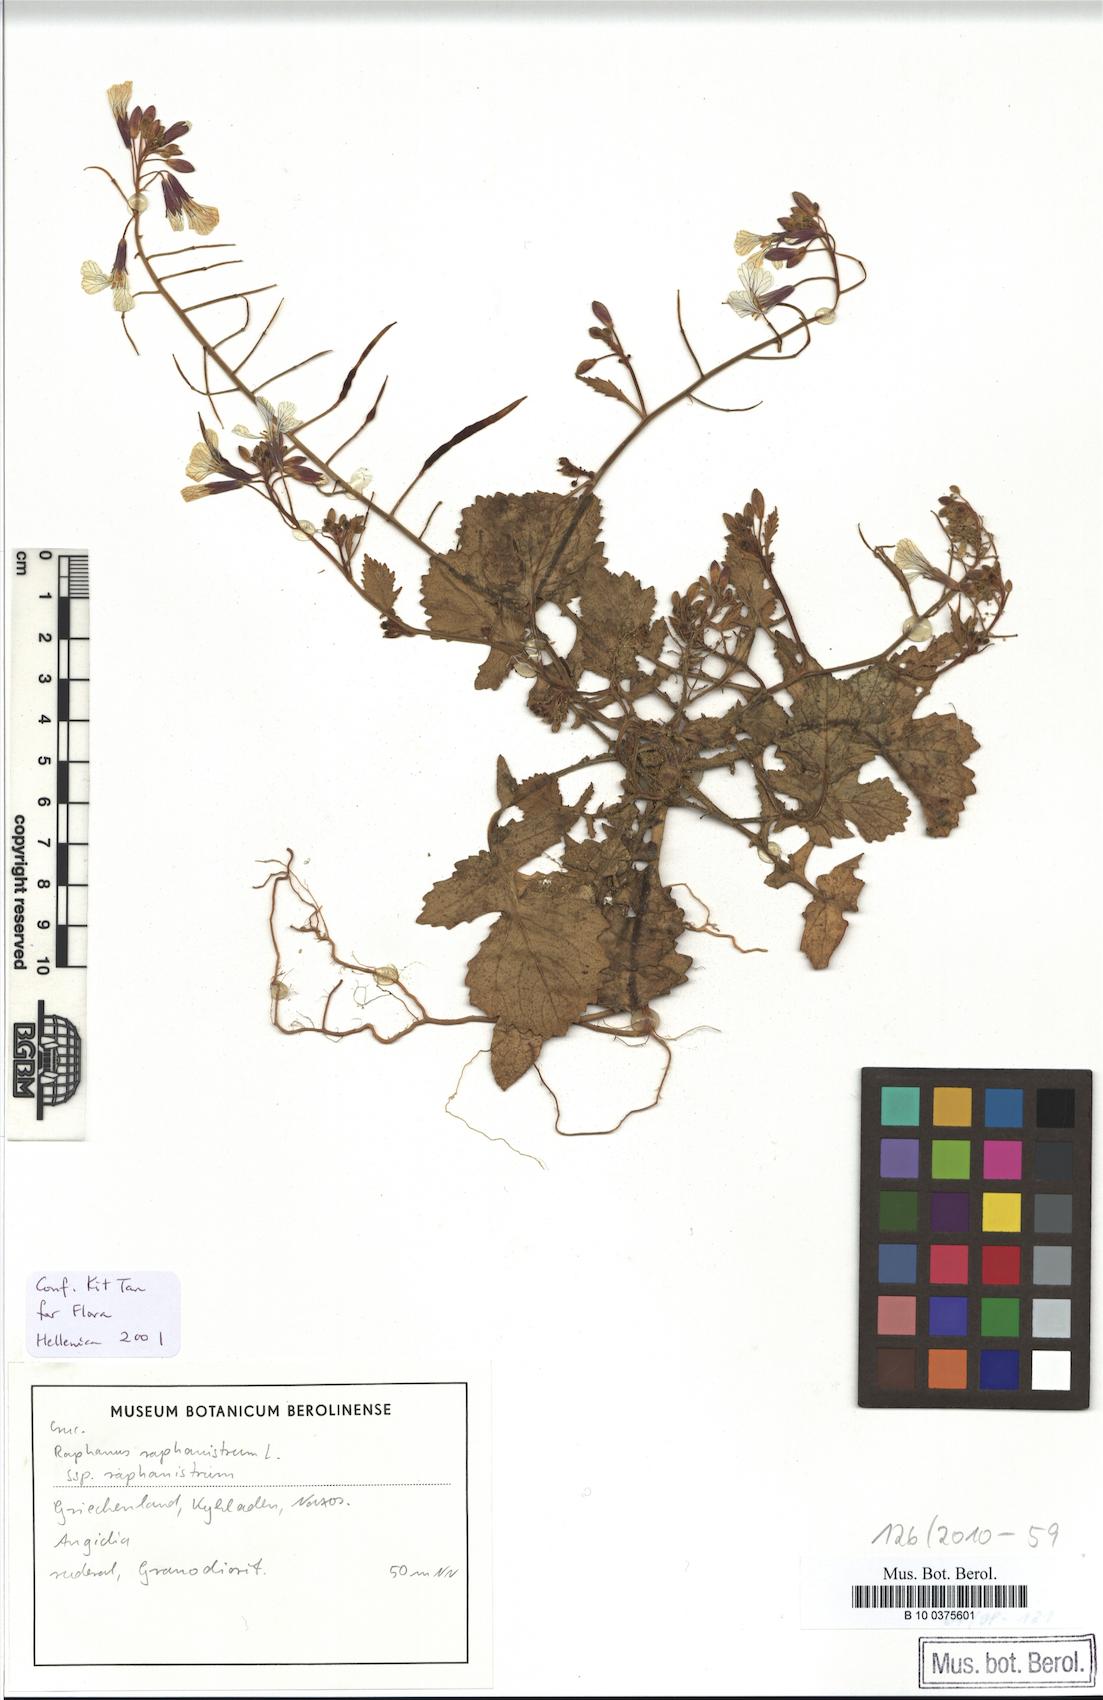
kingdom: Plantae
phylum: Tracheophyta
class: Magnoliopsida
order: Brassicales
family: Brassicaceae
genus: Raphanus
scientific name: Raphanus raphanistrum
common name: Wild radish
